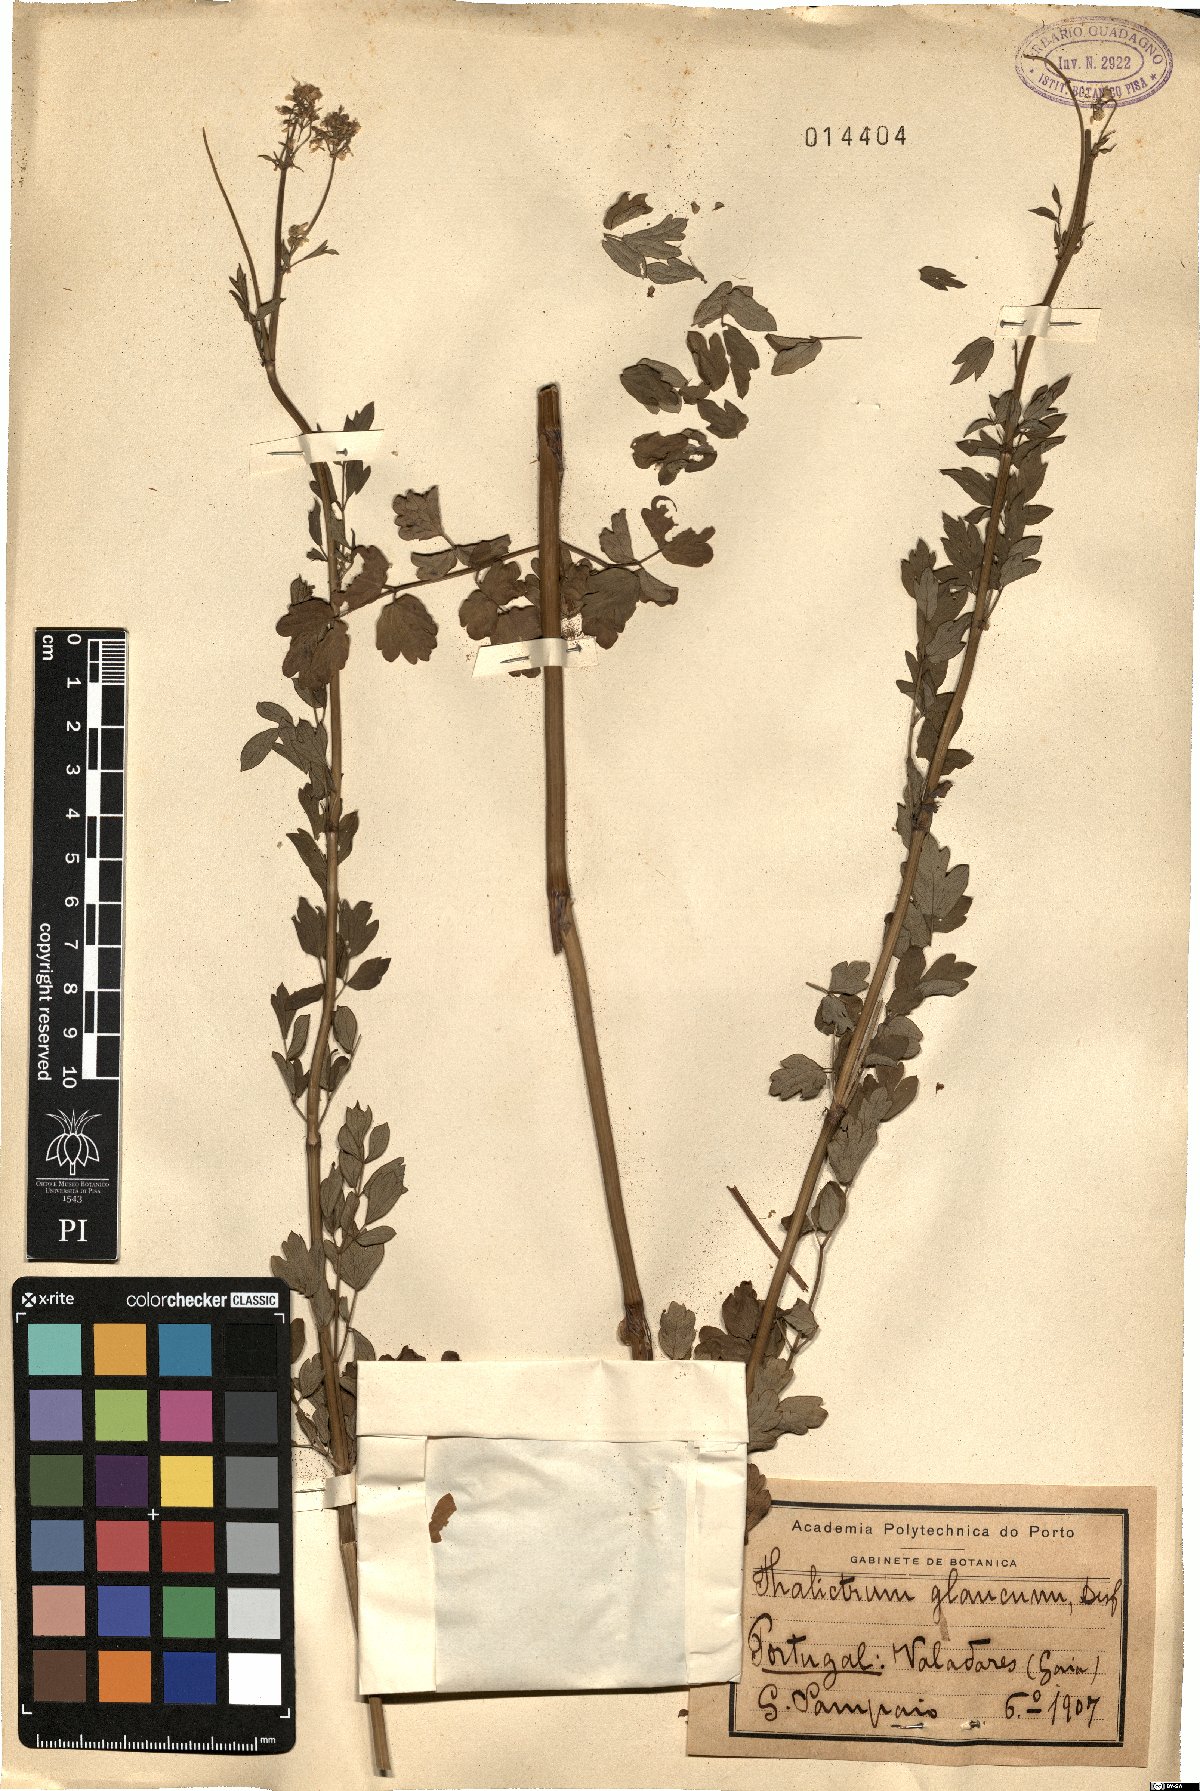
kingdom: Plantae
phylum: Tracheophyta
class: Magnoliopsida
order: Ranunculales
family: Ranunculaceae
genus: Thalictrum
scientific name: Thalictrum speciosissimum
